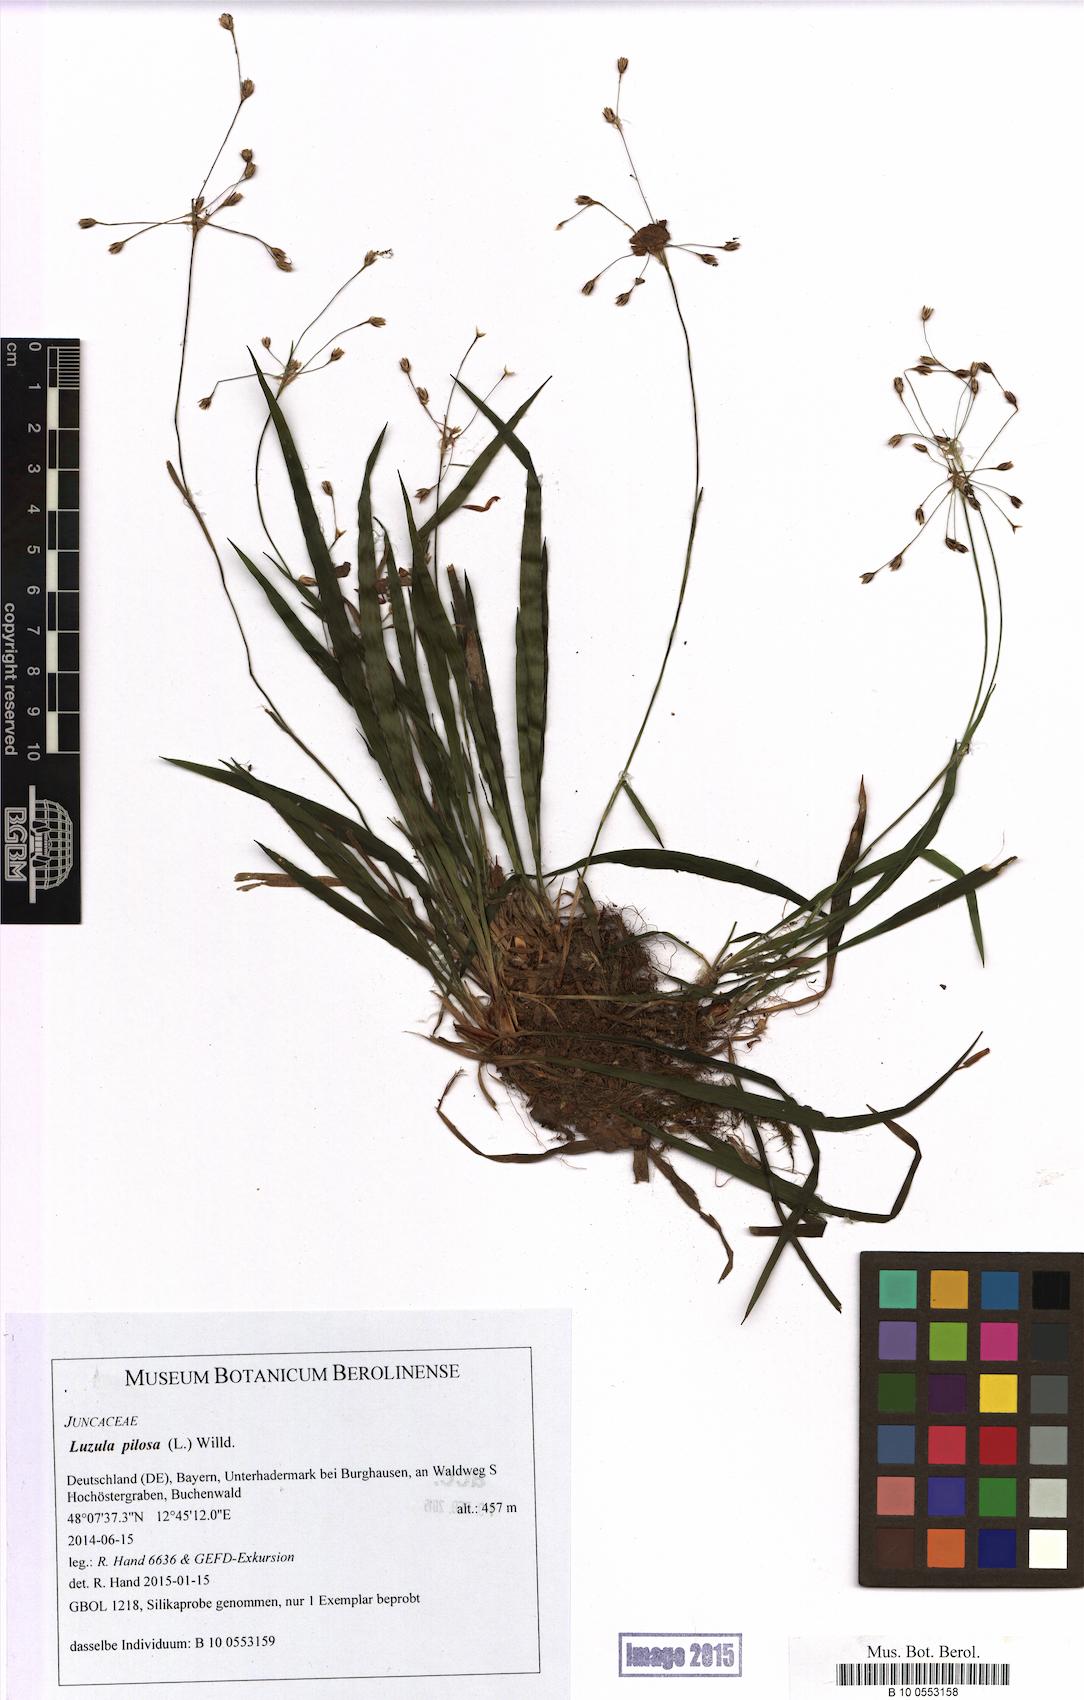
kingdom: Plantae
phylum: Tracheophyta
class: Liliopsida
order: Poales
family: Juncaceae
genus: Luzula
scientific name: Luzula pilosa
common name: Hairy wood-rush
